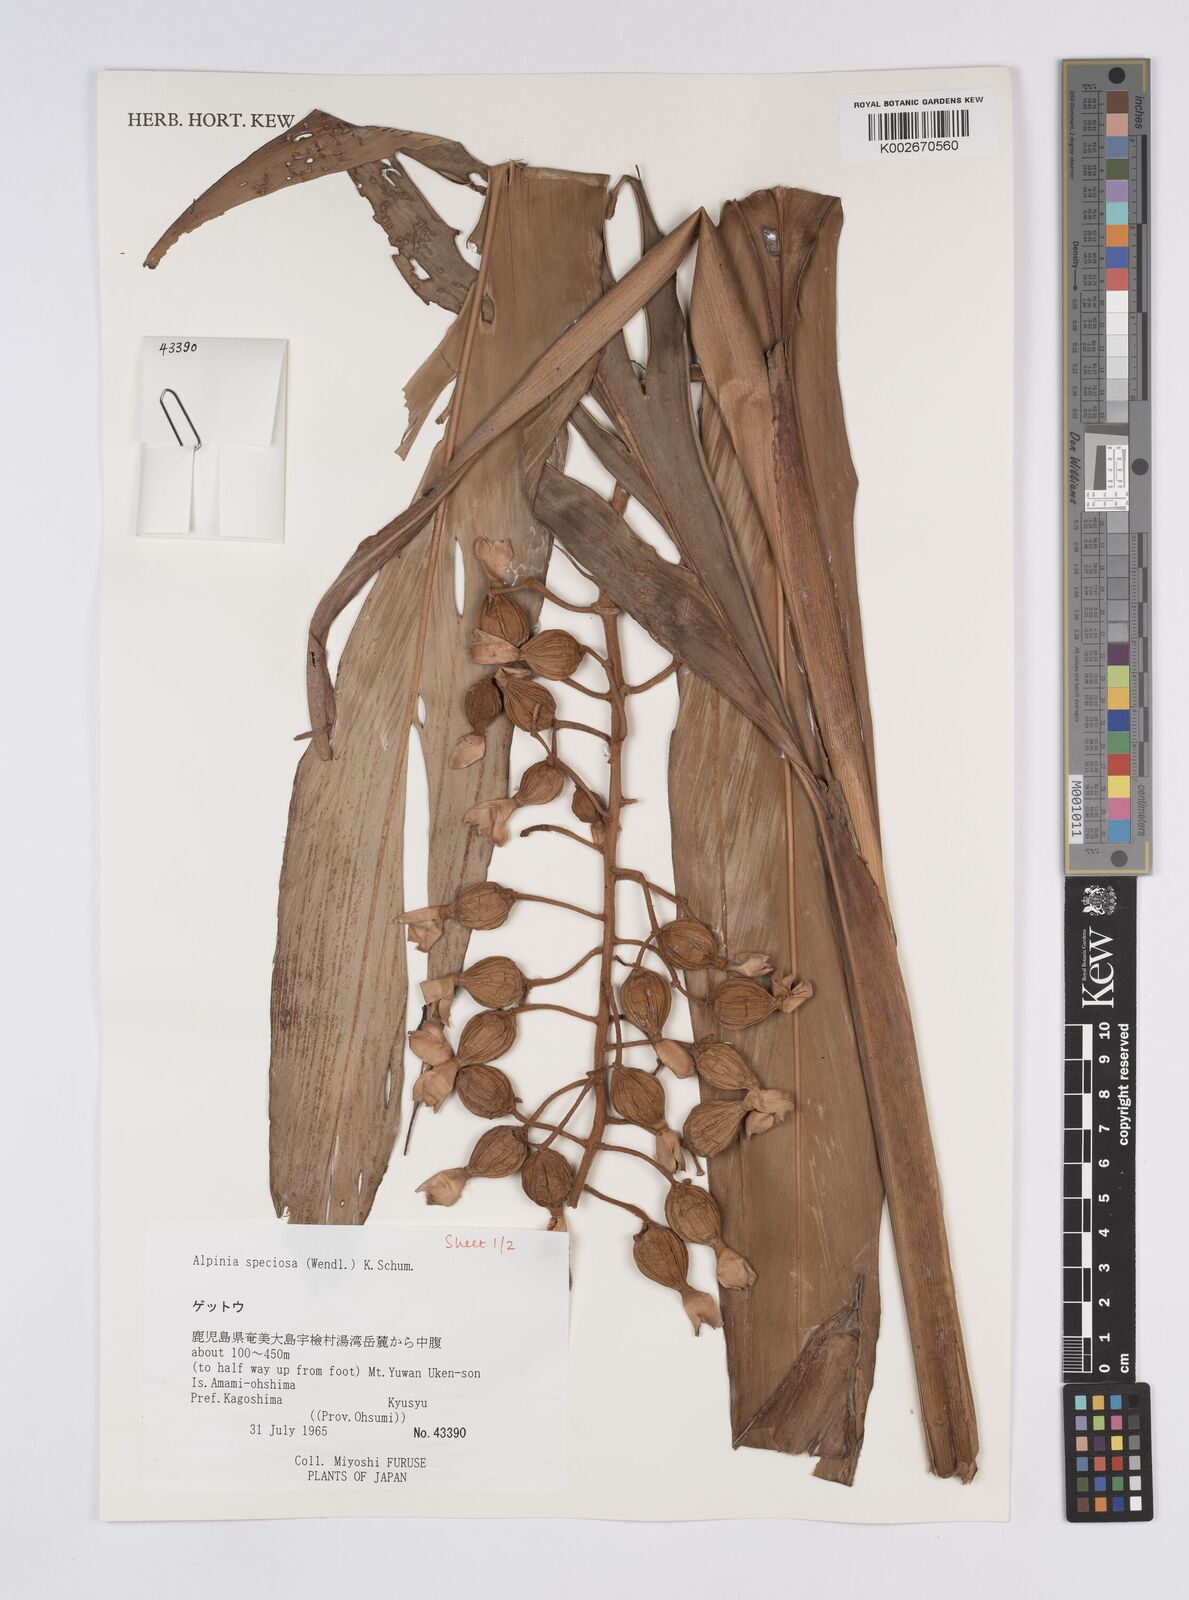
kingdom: Plantae
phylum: Tracheophyta
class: Liliopsida
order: Zingiberales
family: Zingiberaceae
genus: Alpinia
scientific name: Alpinia zerumbet
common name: Shellplant
